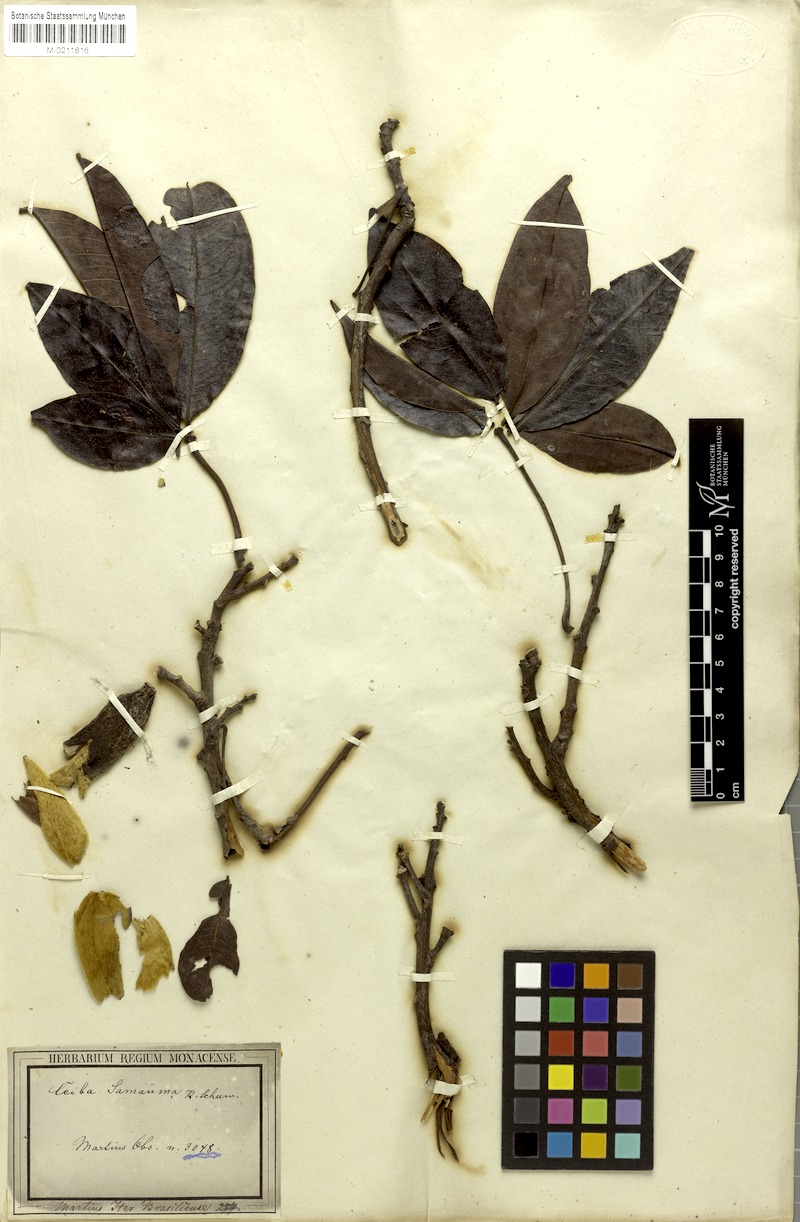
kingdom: Plantae
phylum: Tracheophyta
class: Magnoliopsida
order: Malvales
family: Malvaceae
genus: Ceiba
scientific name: Ceiba samauma
